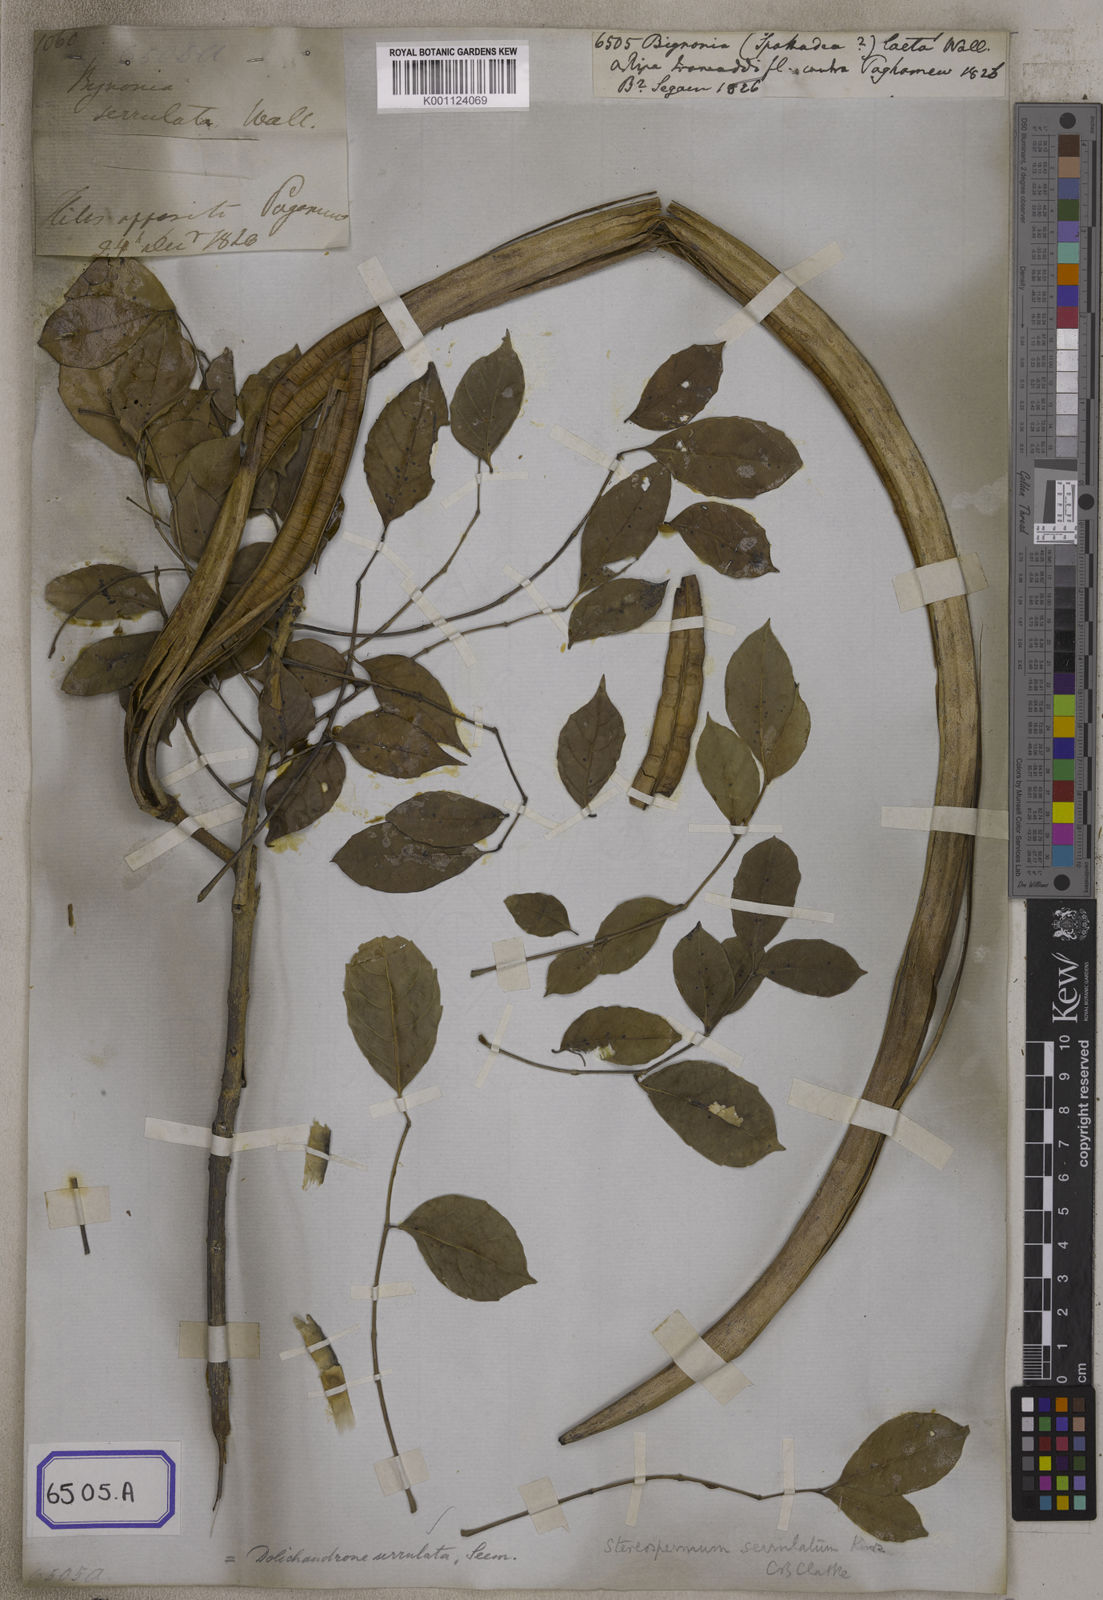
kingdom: Plantae
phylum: Tracheophyta
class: Magnoliopsida
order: Lamiales
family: Bignoniaceae
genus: Bignonia
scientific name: Bignonia
